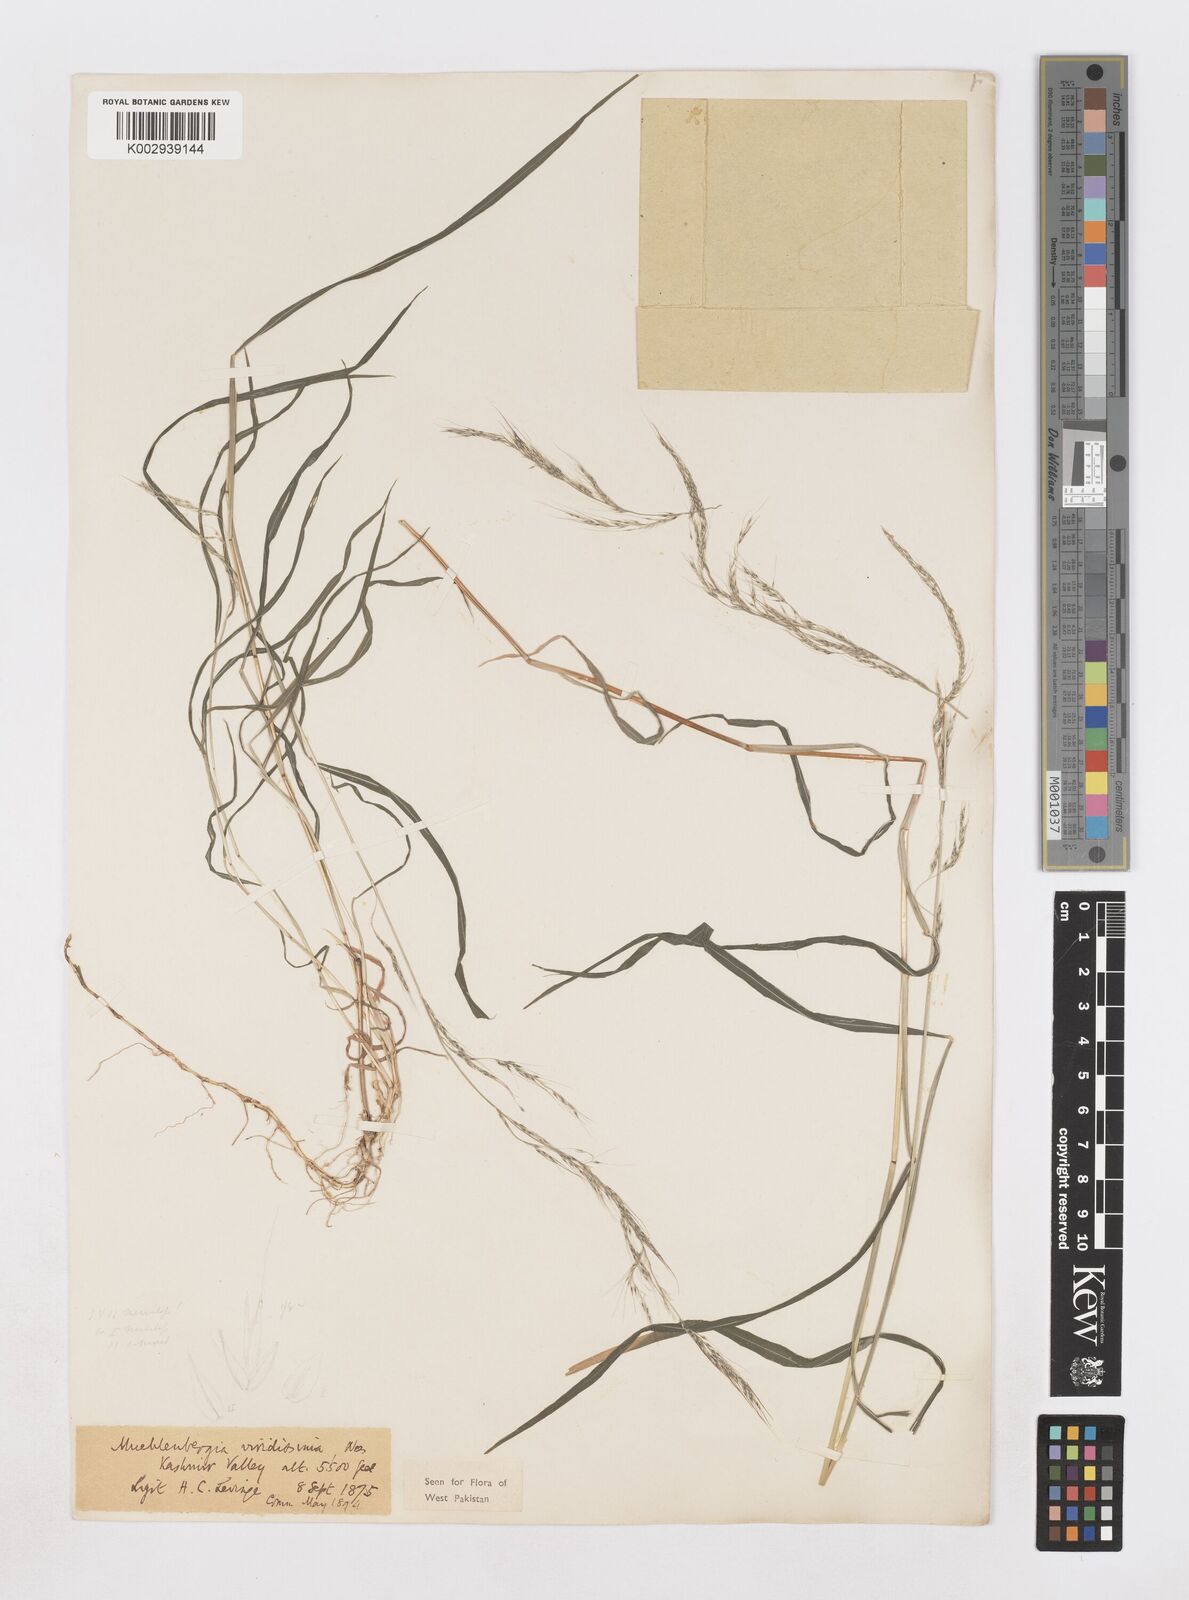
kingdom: Plantae
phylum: Tracheophyta
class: Liliopsida
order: Poales
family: Poaceae
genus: Muhlenbergia
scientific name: Muhlenbergia huegelii
